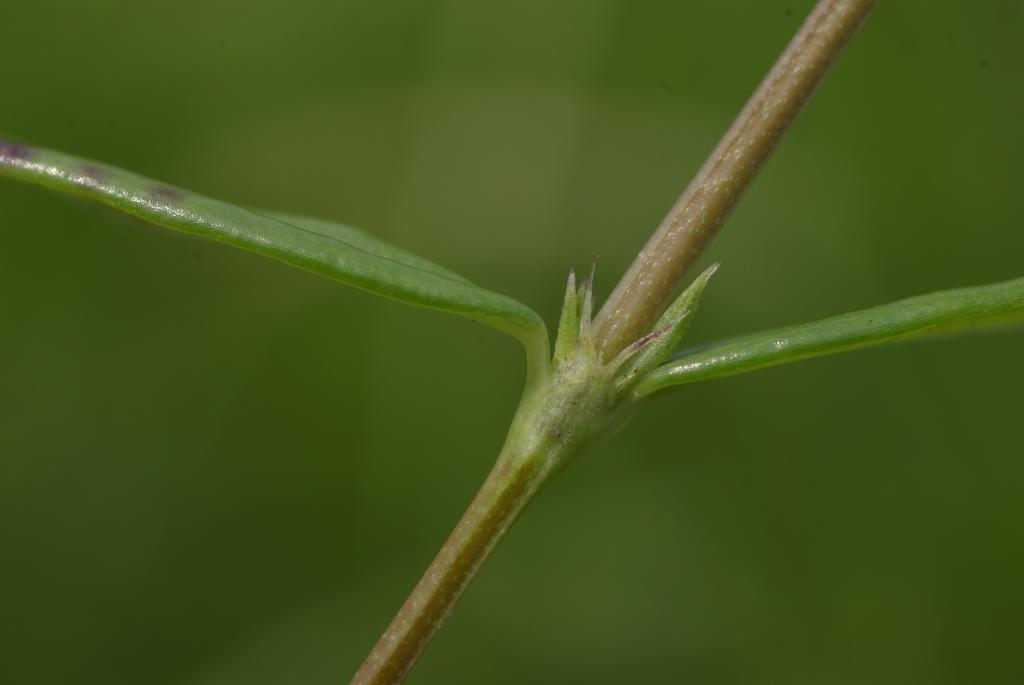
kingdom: Plantae
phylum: Tracheophyta
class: Magnoliopsida
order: Gentianales
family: Rubiaceae
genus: Hedyotis
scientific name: Hedyotis
